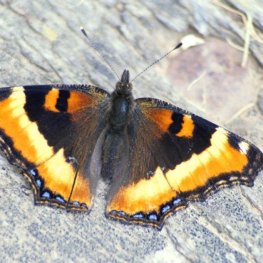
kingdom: Animalia
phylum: Arthropoda
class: Insecta
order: Lepidoptera
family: Nymphalidae
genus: Aglais
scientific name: Aglais milberti
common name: Milbert's Tortoiseshell
